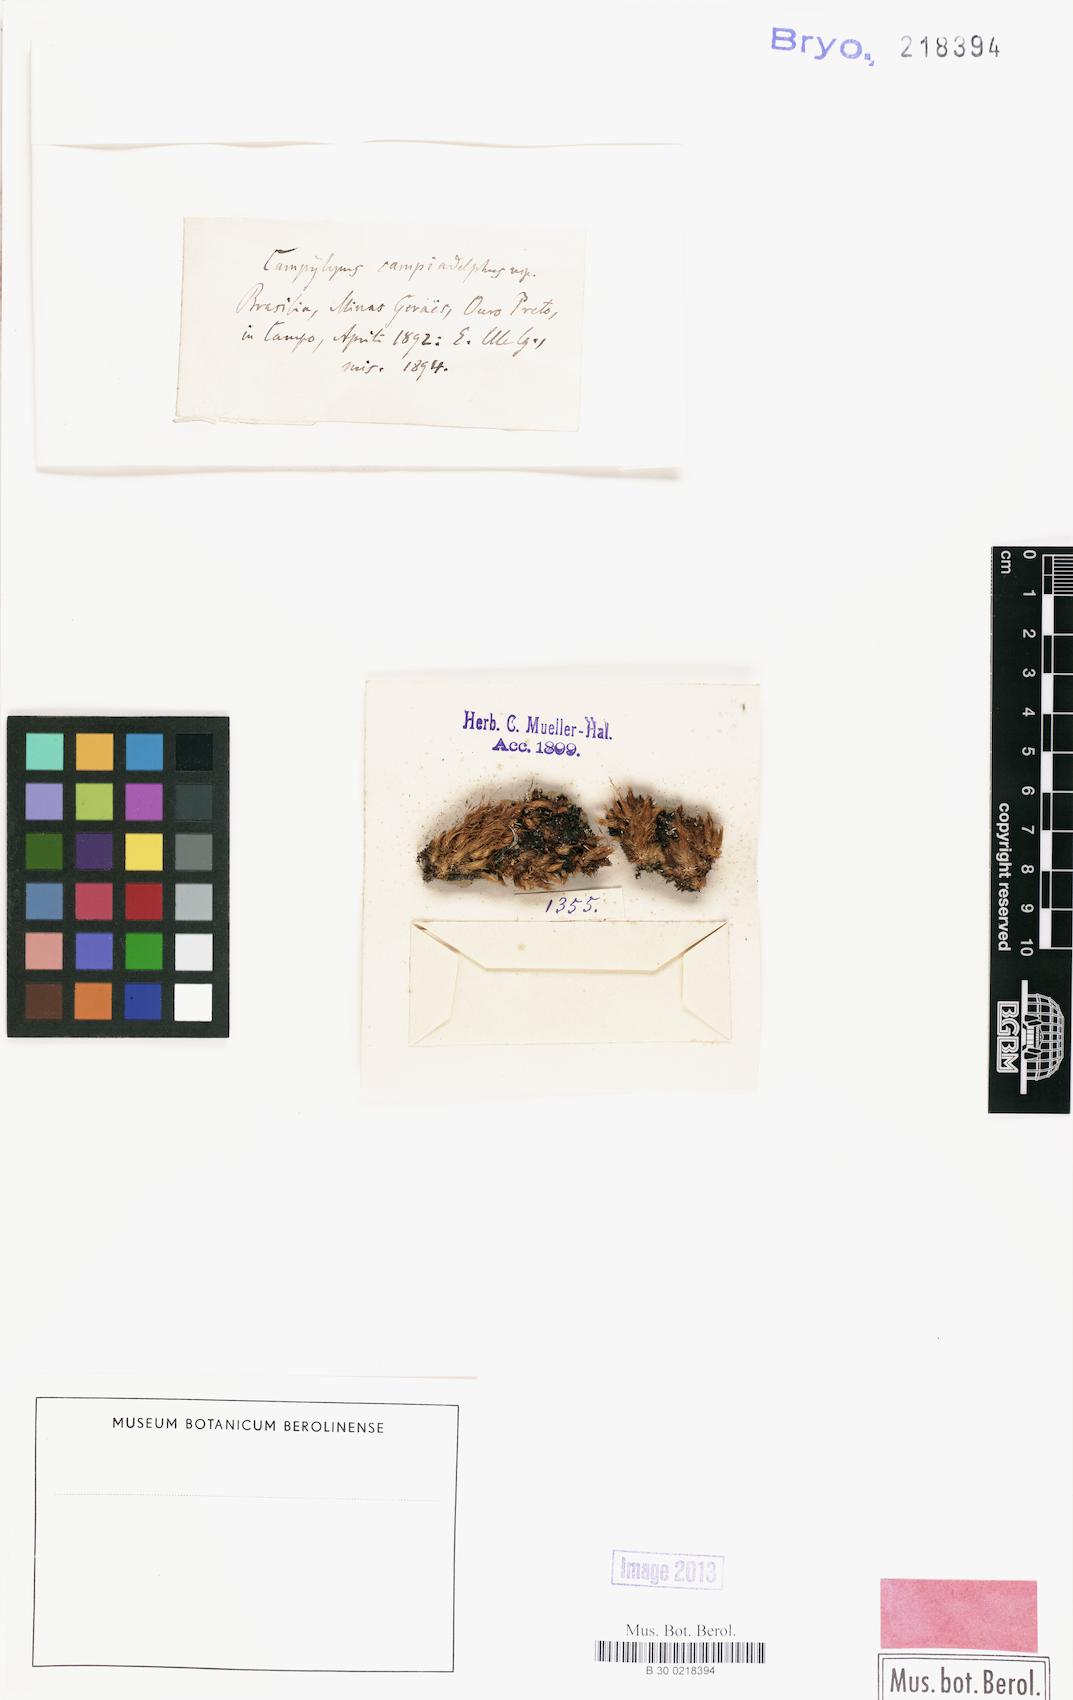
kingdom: Plantae
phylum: Bryophyta
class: Bryopsida
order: Dicranales
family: Leucobryaceae
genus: Campylopus
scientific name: Campylopus savannarum
